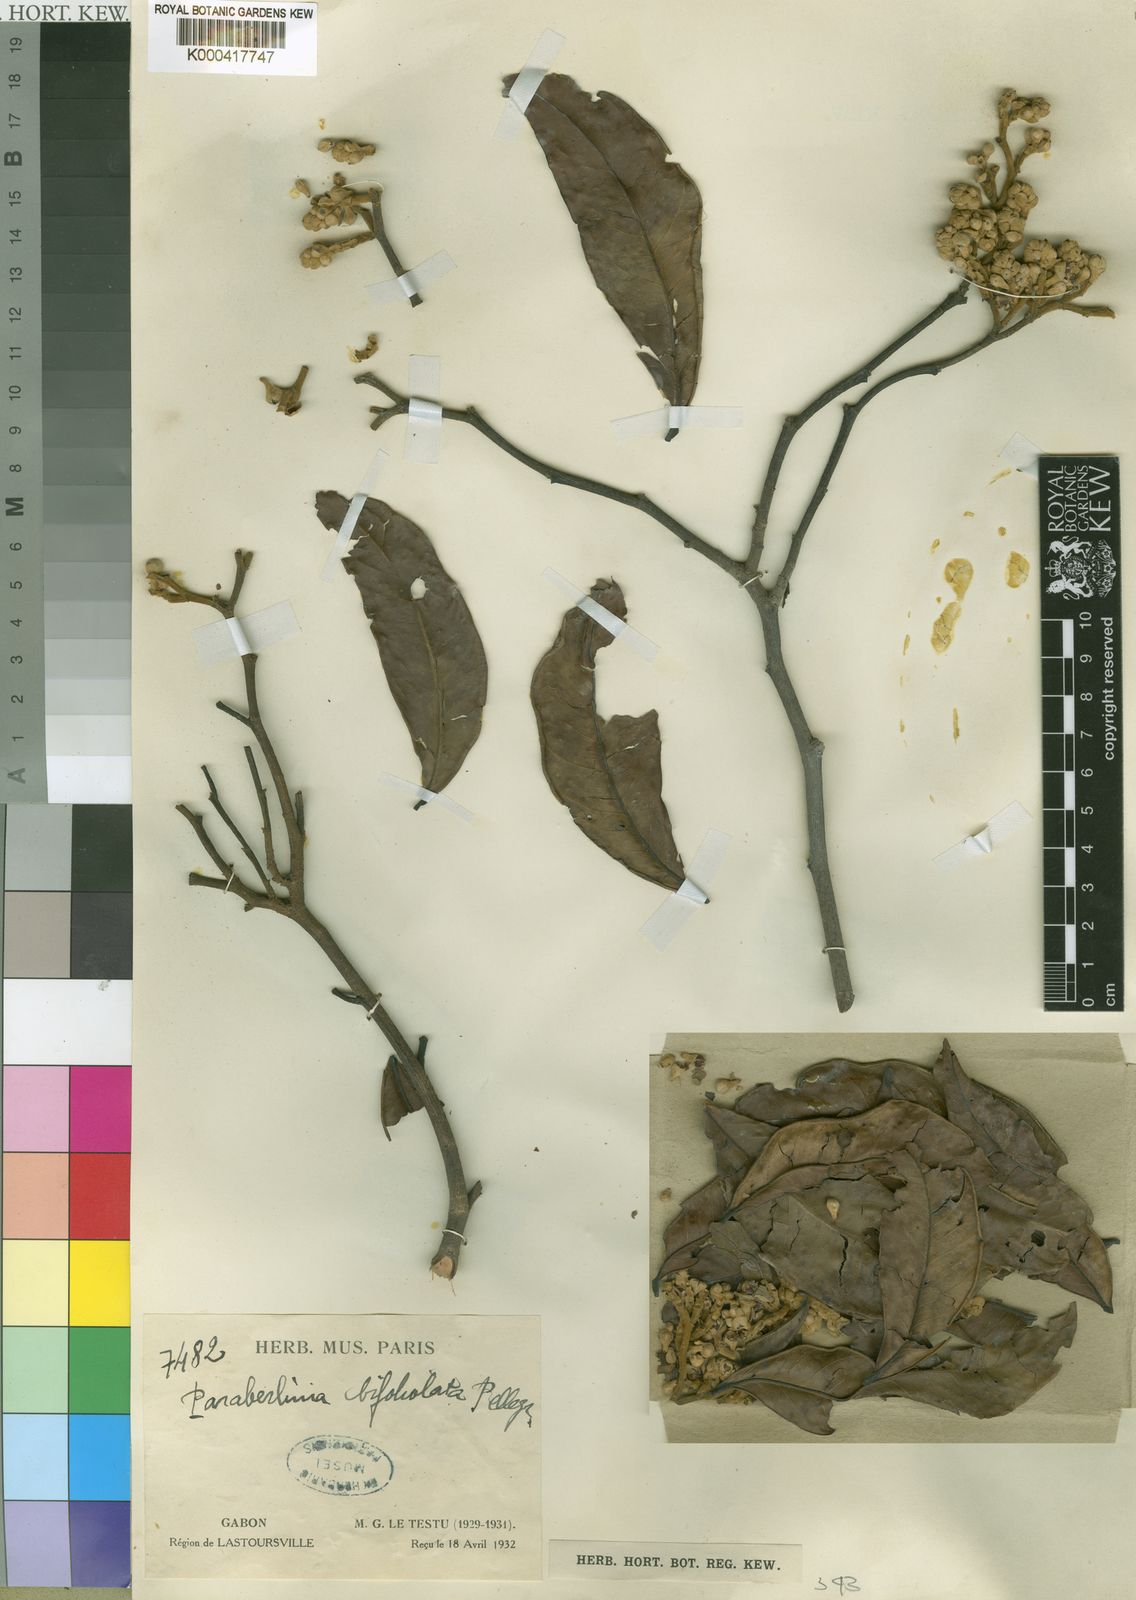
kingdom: Plantae
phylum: Tracheophyta
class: Magnoliopsida
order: Fabales
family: Fabaceae
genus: Julbernardia
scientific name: Julbernardia pellegriniana
